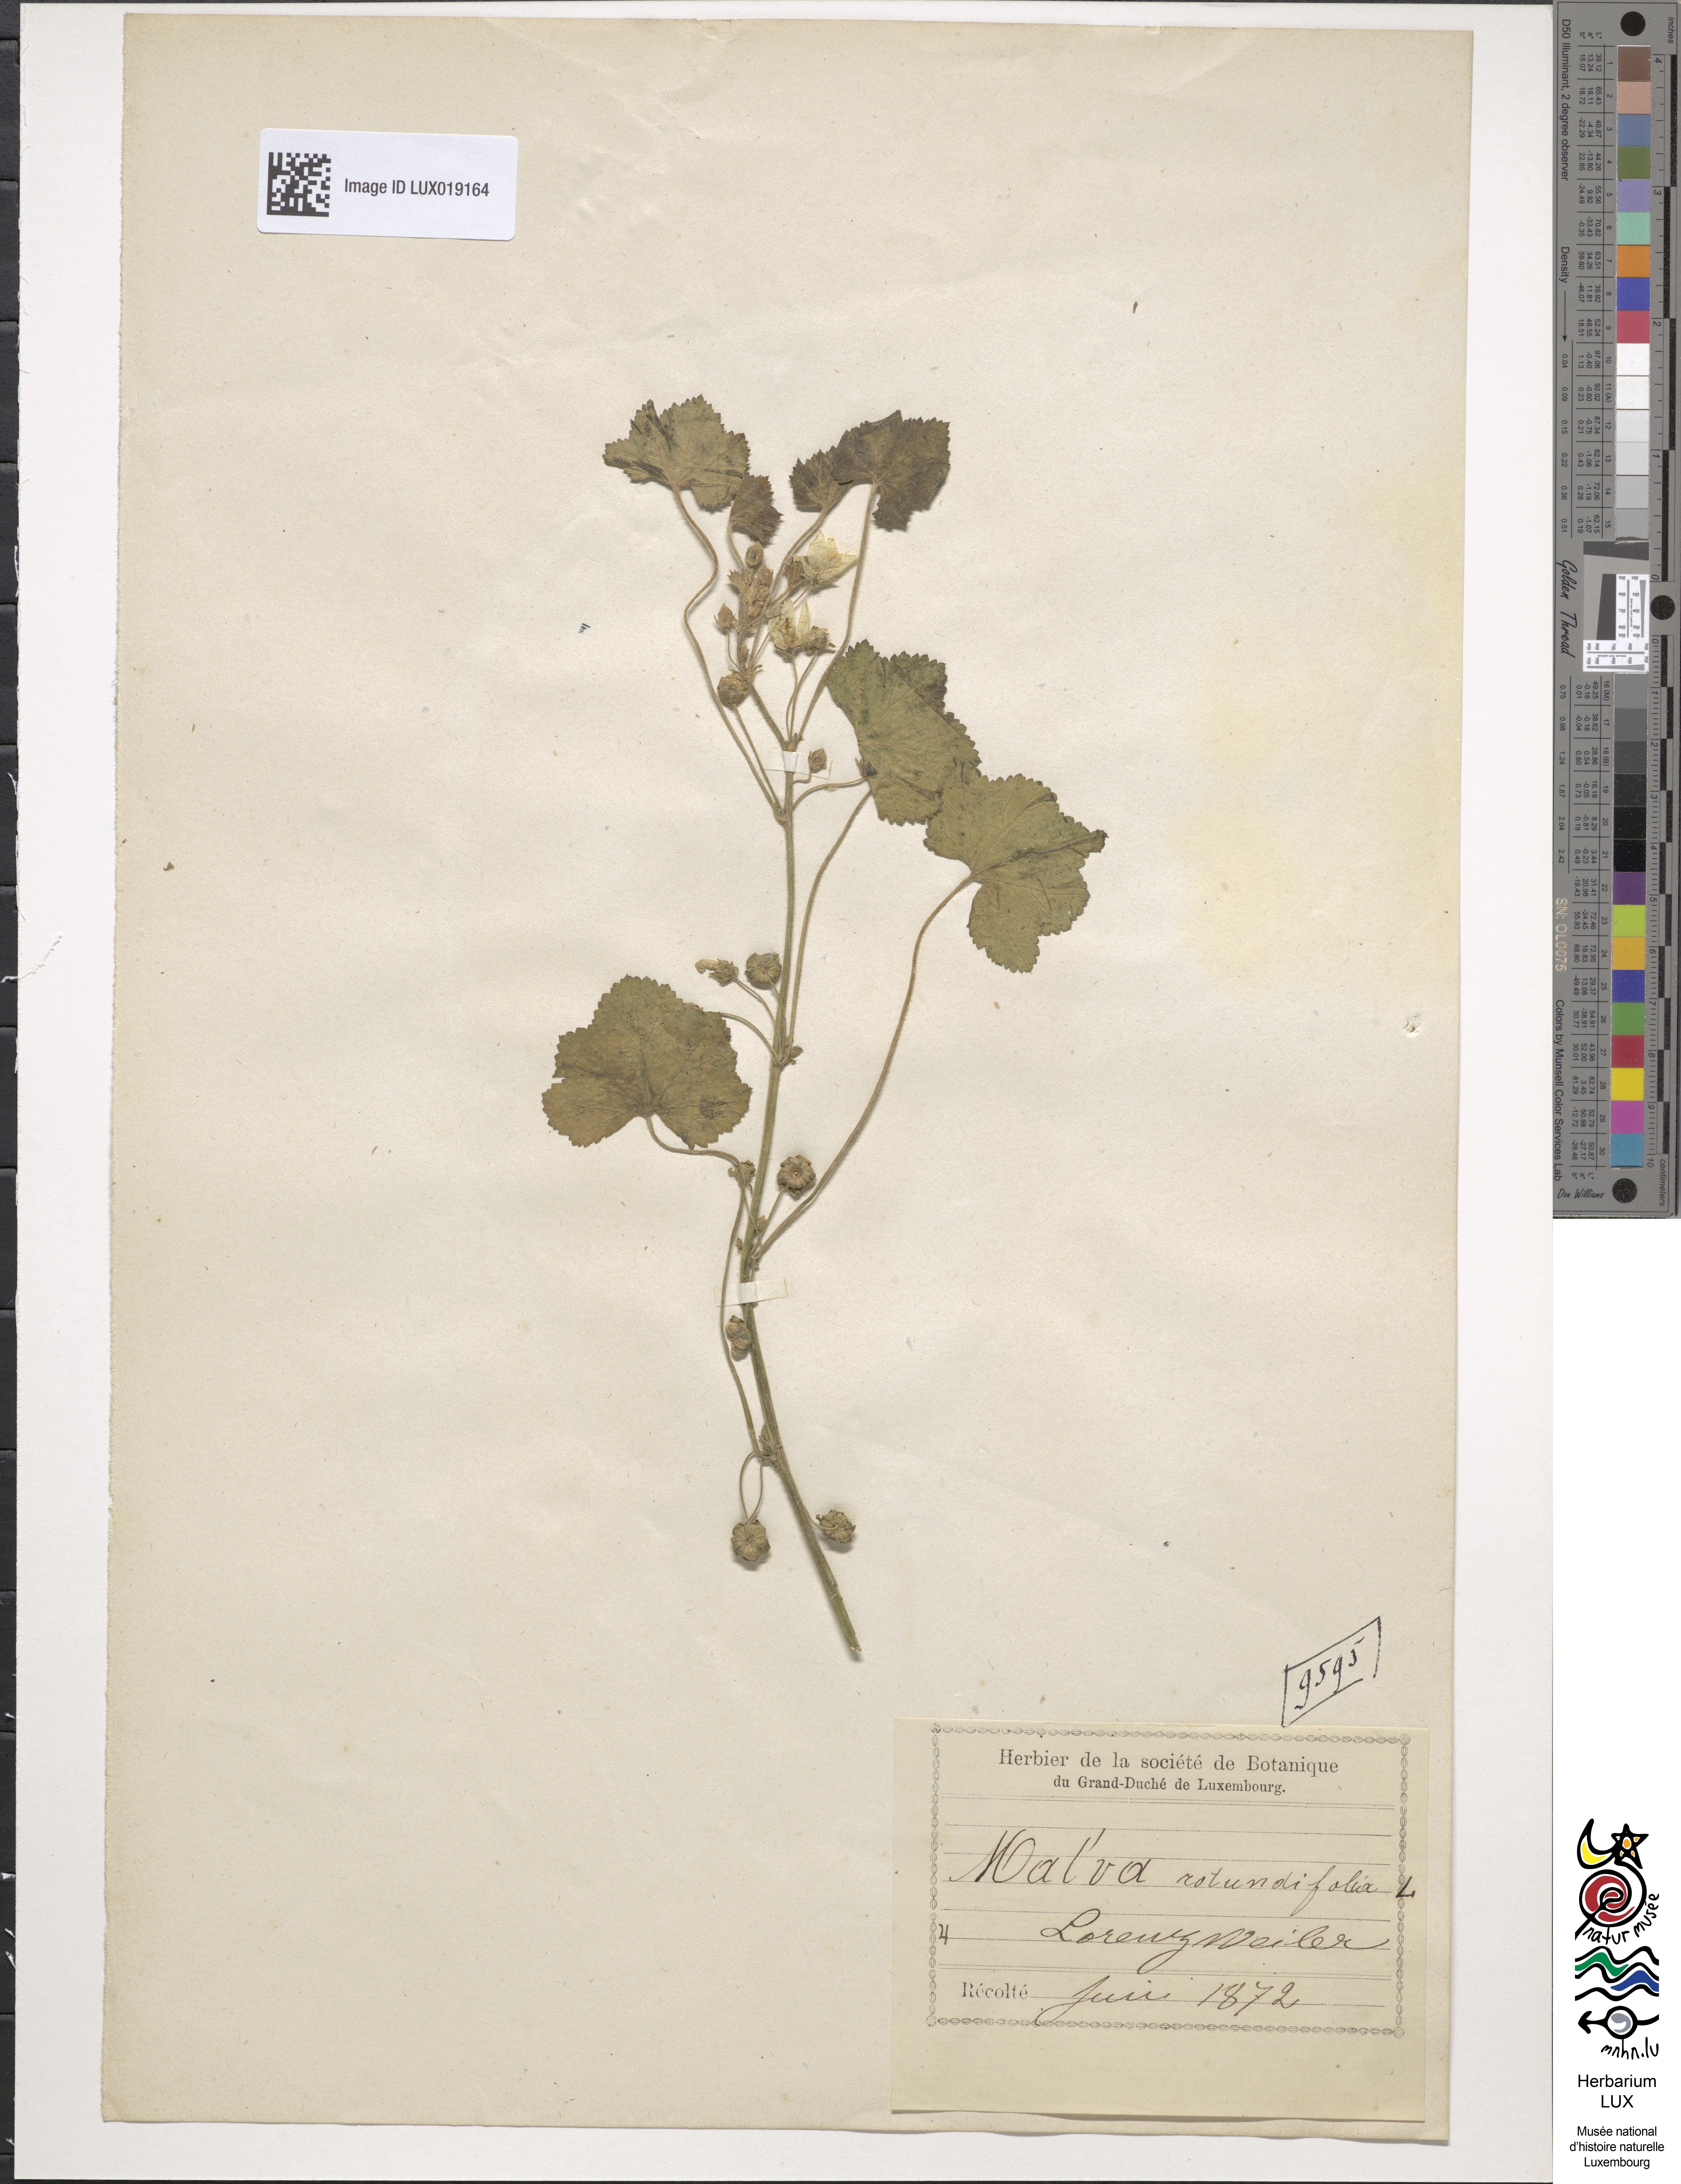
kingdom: Plantae
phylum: Tracheophyta
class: Magnoliopsida
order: Malvales
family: Malvaceae
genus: Malva
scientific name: Malva pusilla
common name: Small mallow
